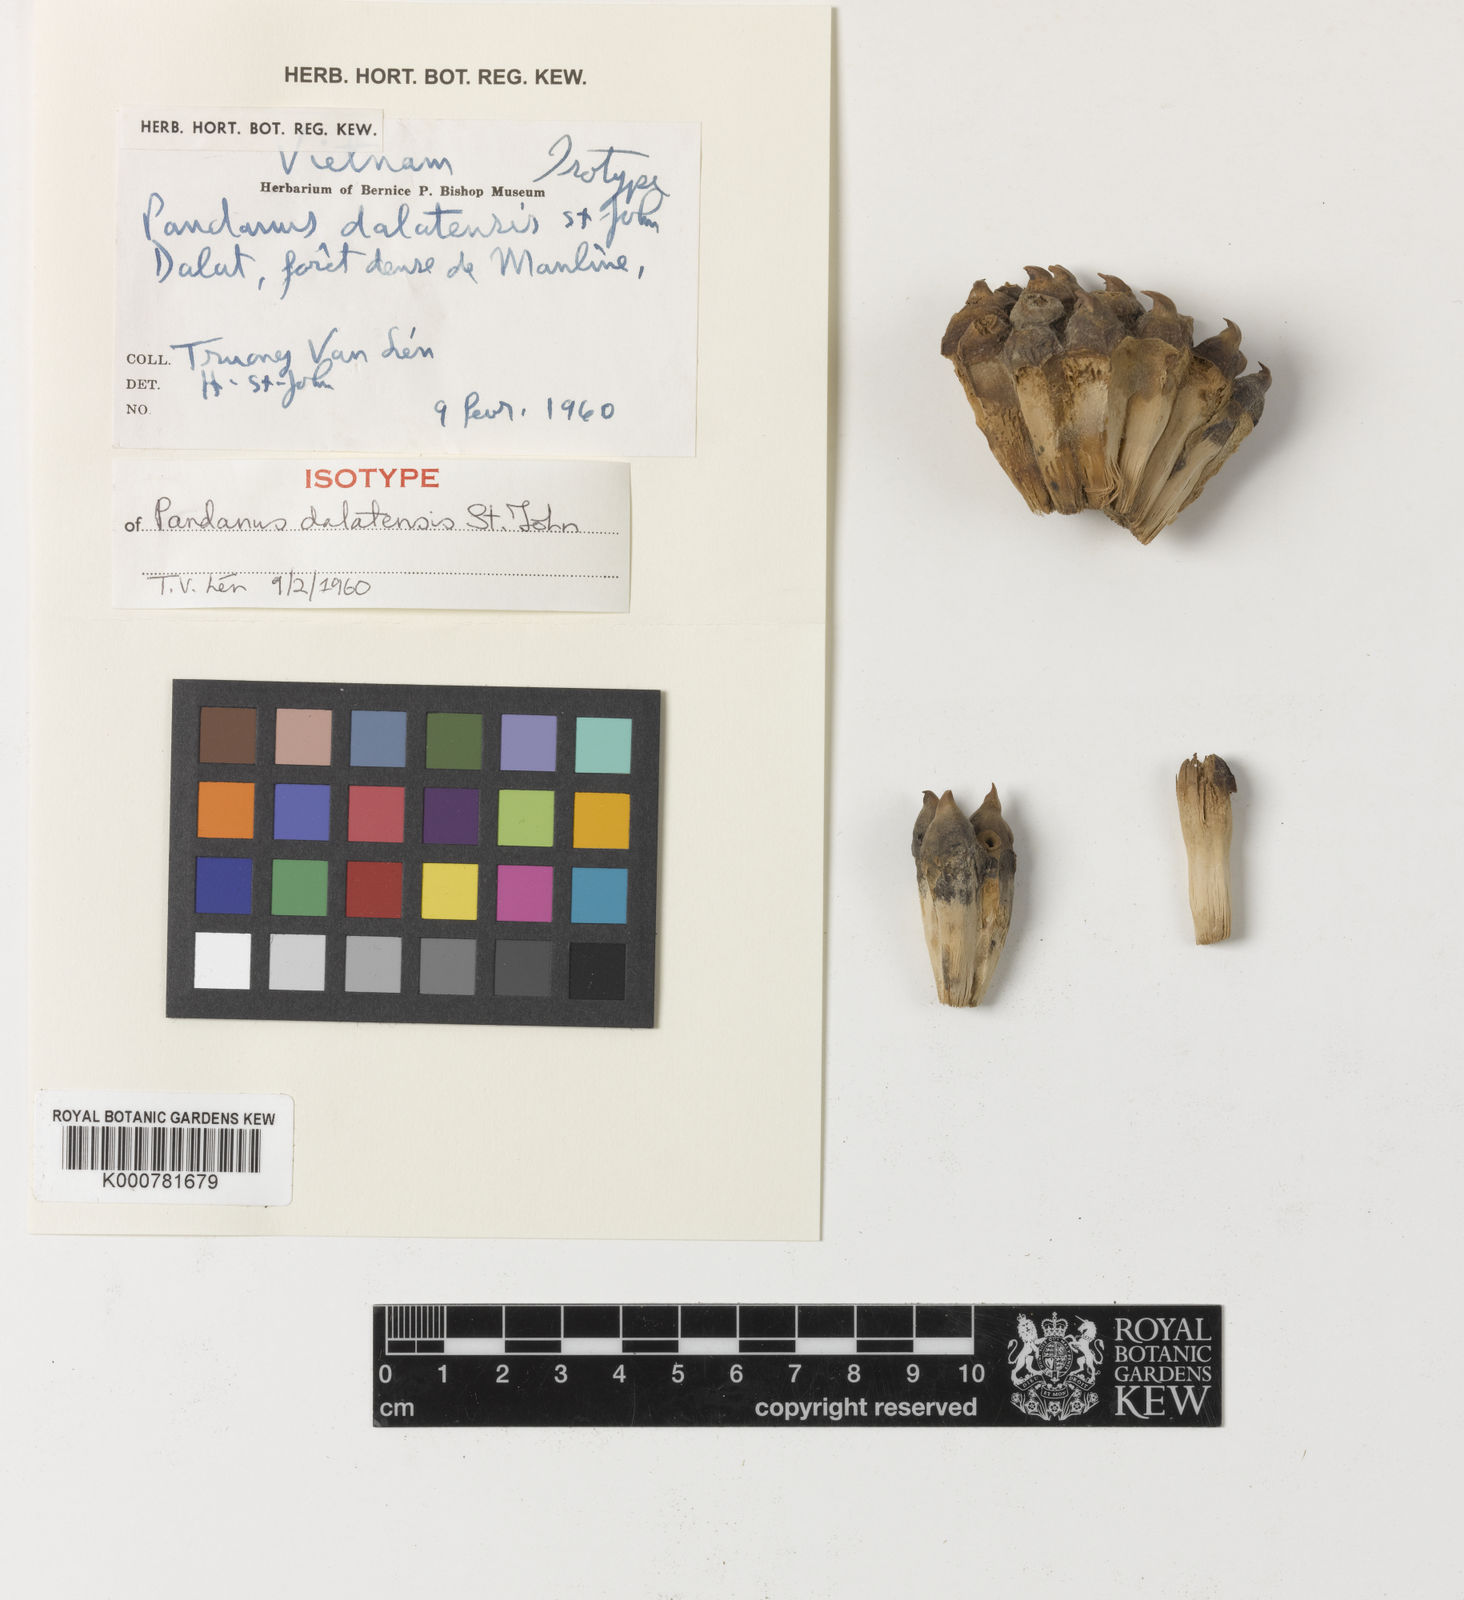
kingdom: Plantae
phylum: Tracheophyta
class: Liliopsida
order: Pandanales
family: Pandanaceae
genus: Pandanus
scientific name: Pandanus
